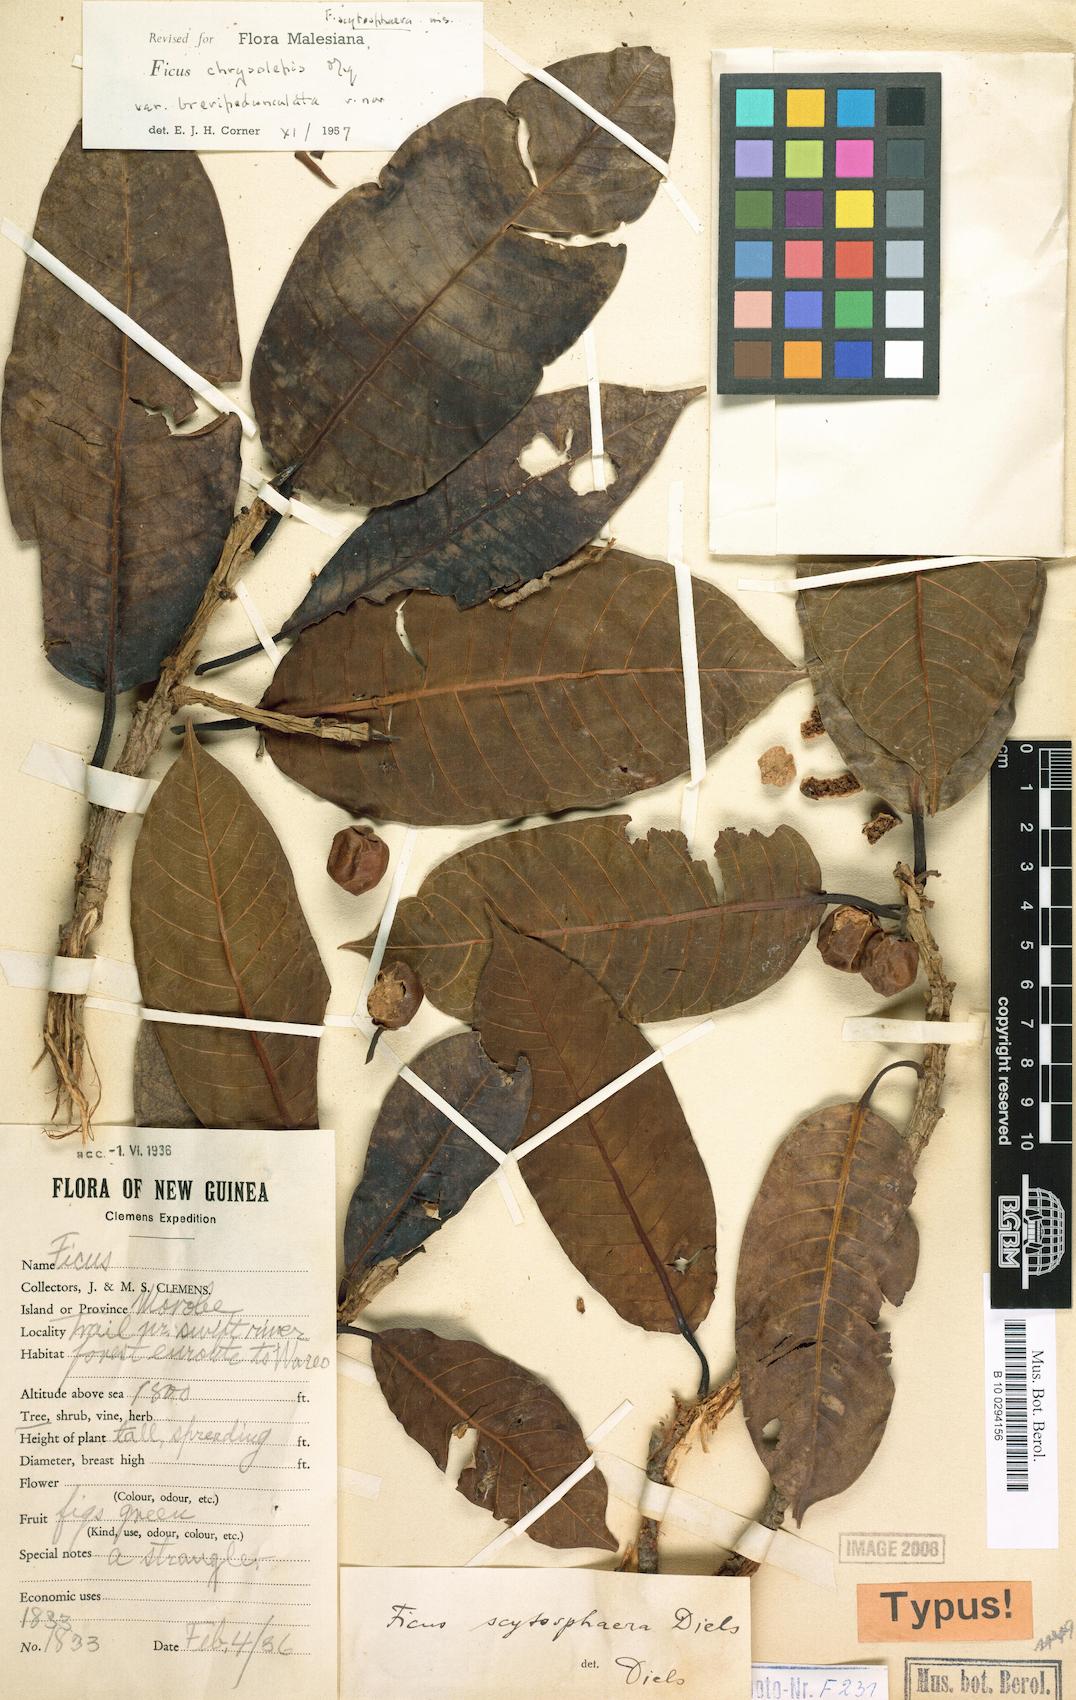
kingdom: Plantae
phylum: Tracheophyta
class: Magnoliopsida
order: Rosales
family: Moraceae
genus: Ficus
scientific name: Ficus chrysolepis
